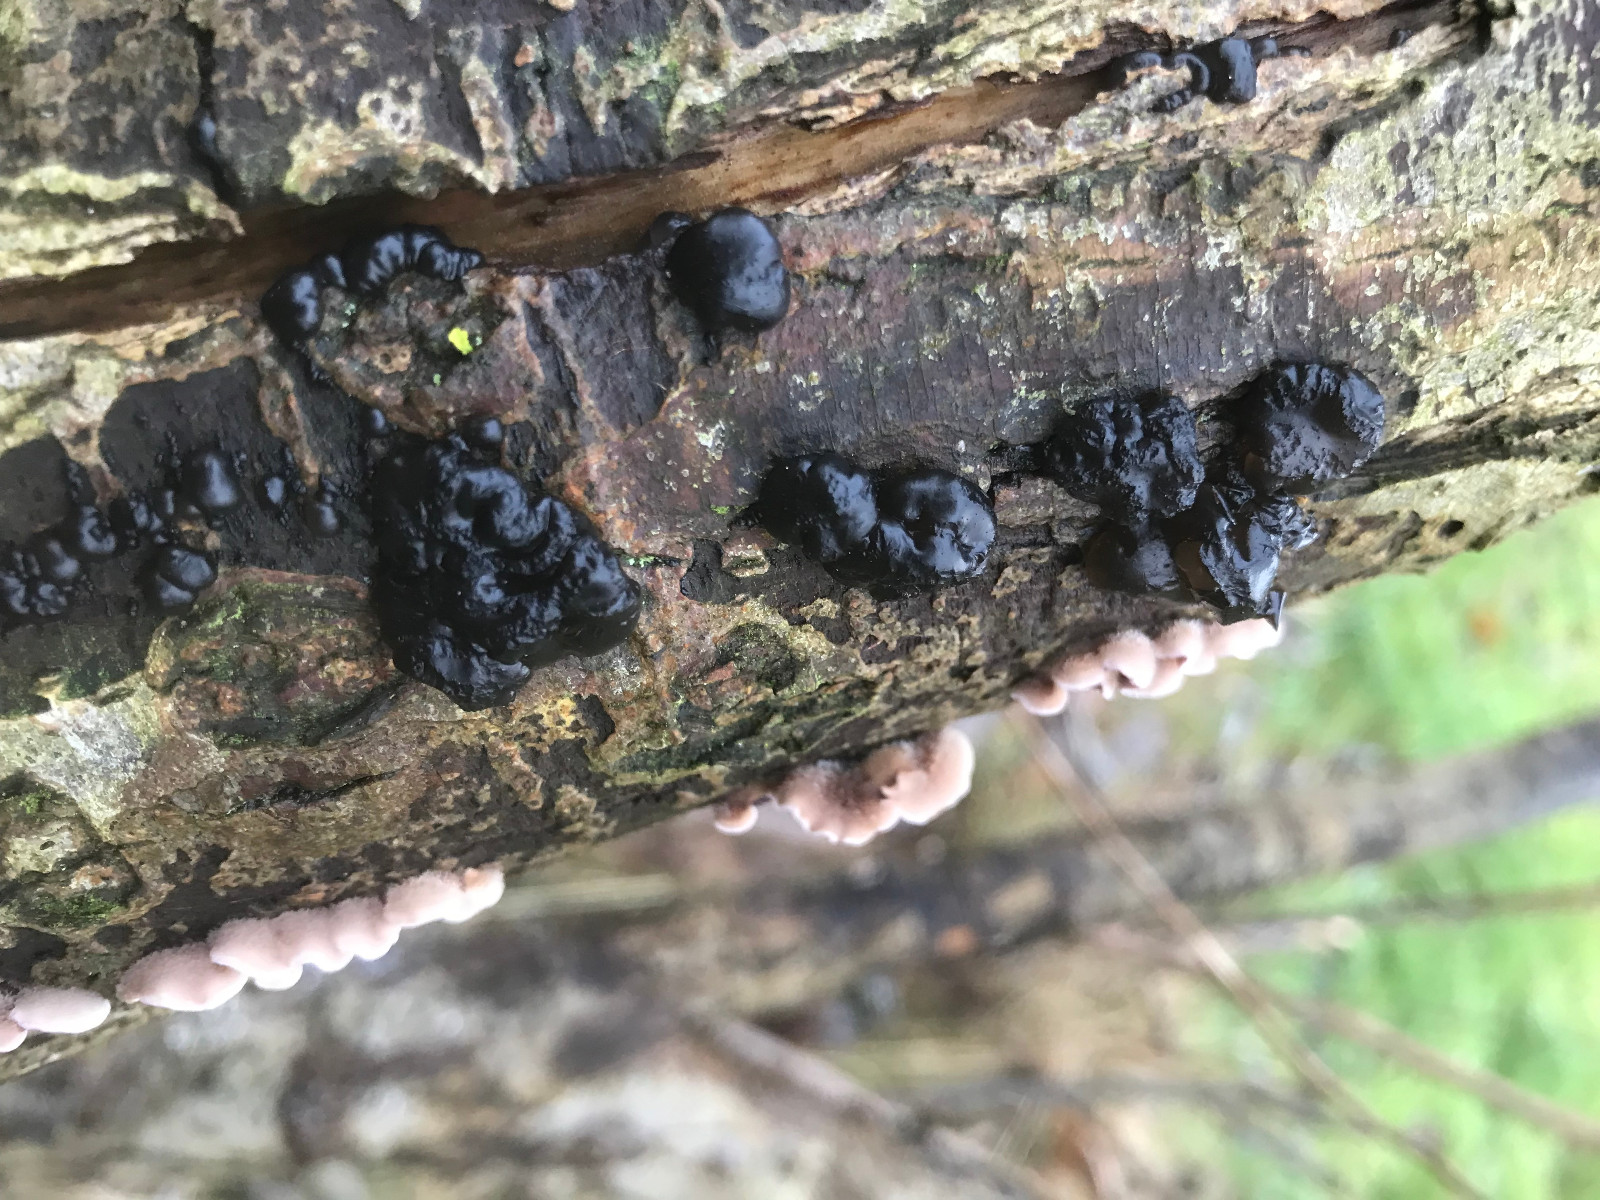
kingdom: Fungi
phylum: Basidiomycota
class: Agaricomycetes
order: Auriculariales
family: Auriculariaceae
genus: Exidia
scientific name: Exidia nigricans
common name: almindelig bævretop
